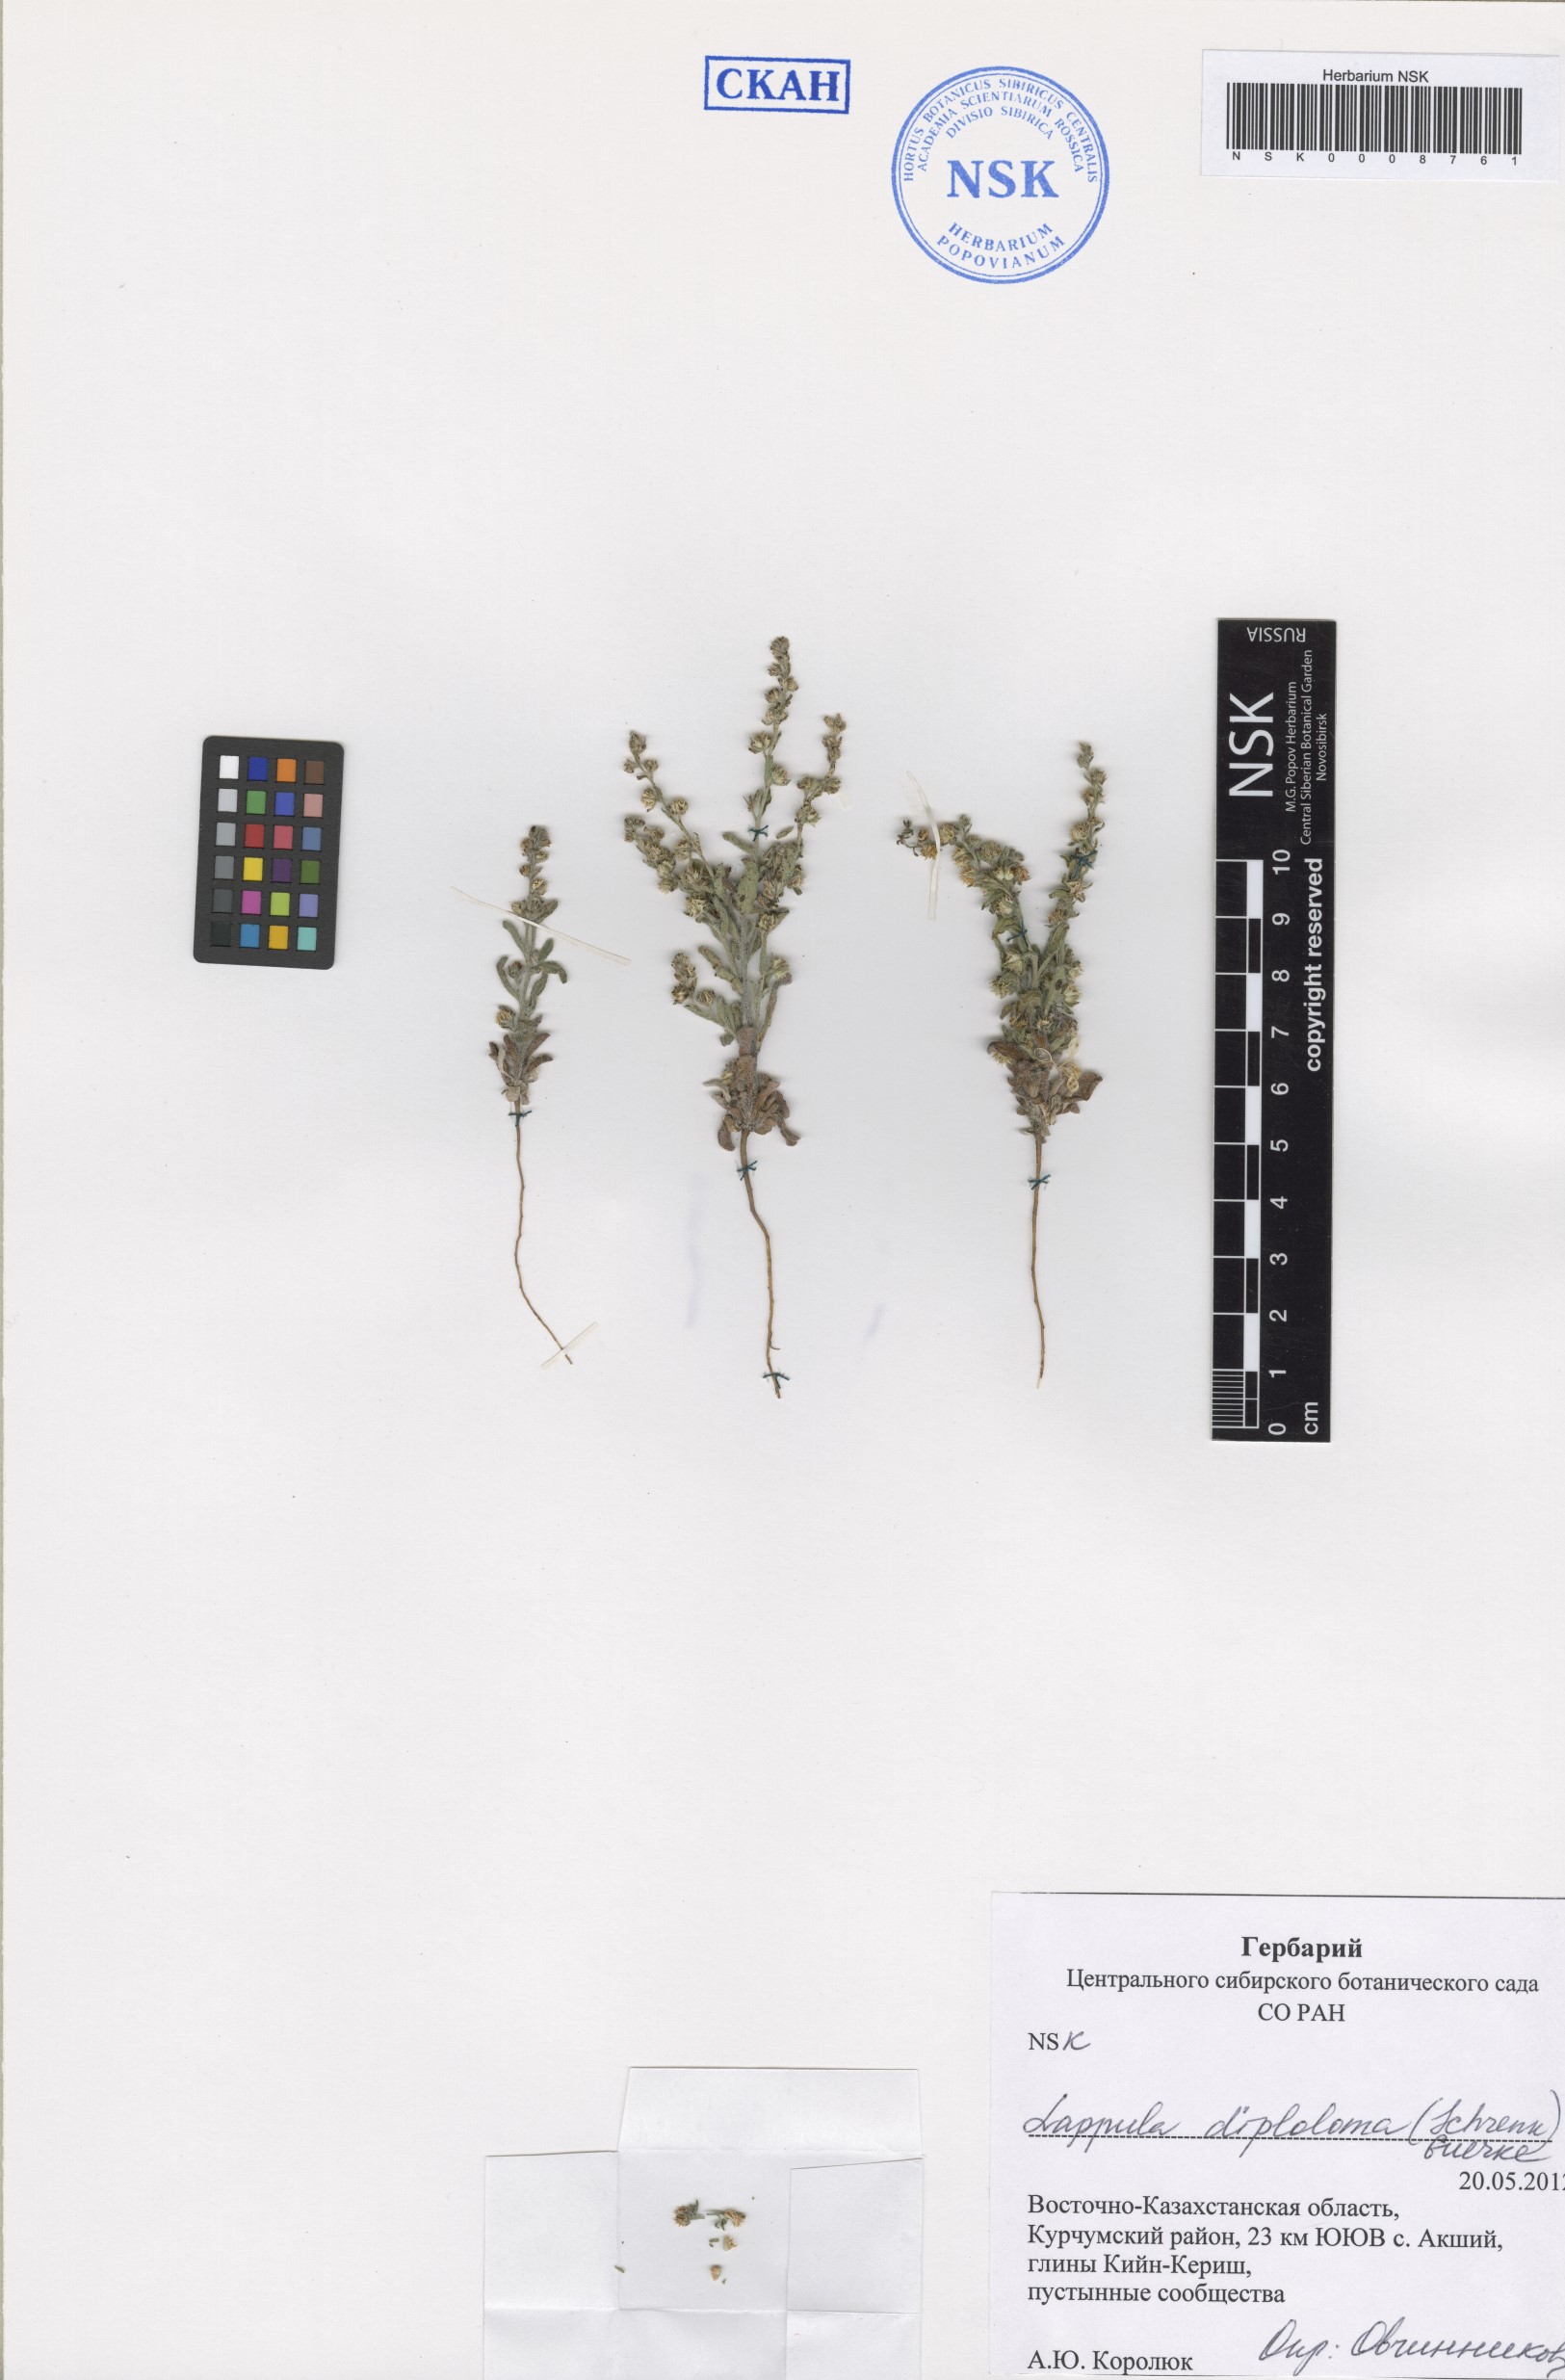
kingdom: Plantae
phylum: Tracheophyta
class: Magnoliopsida
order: Boraginales
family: Boraginaceae
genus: Lappula
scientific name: Lappula diploloma
